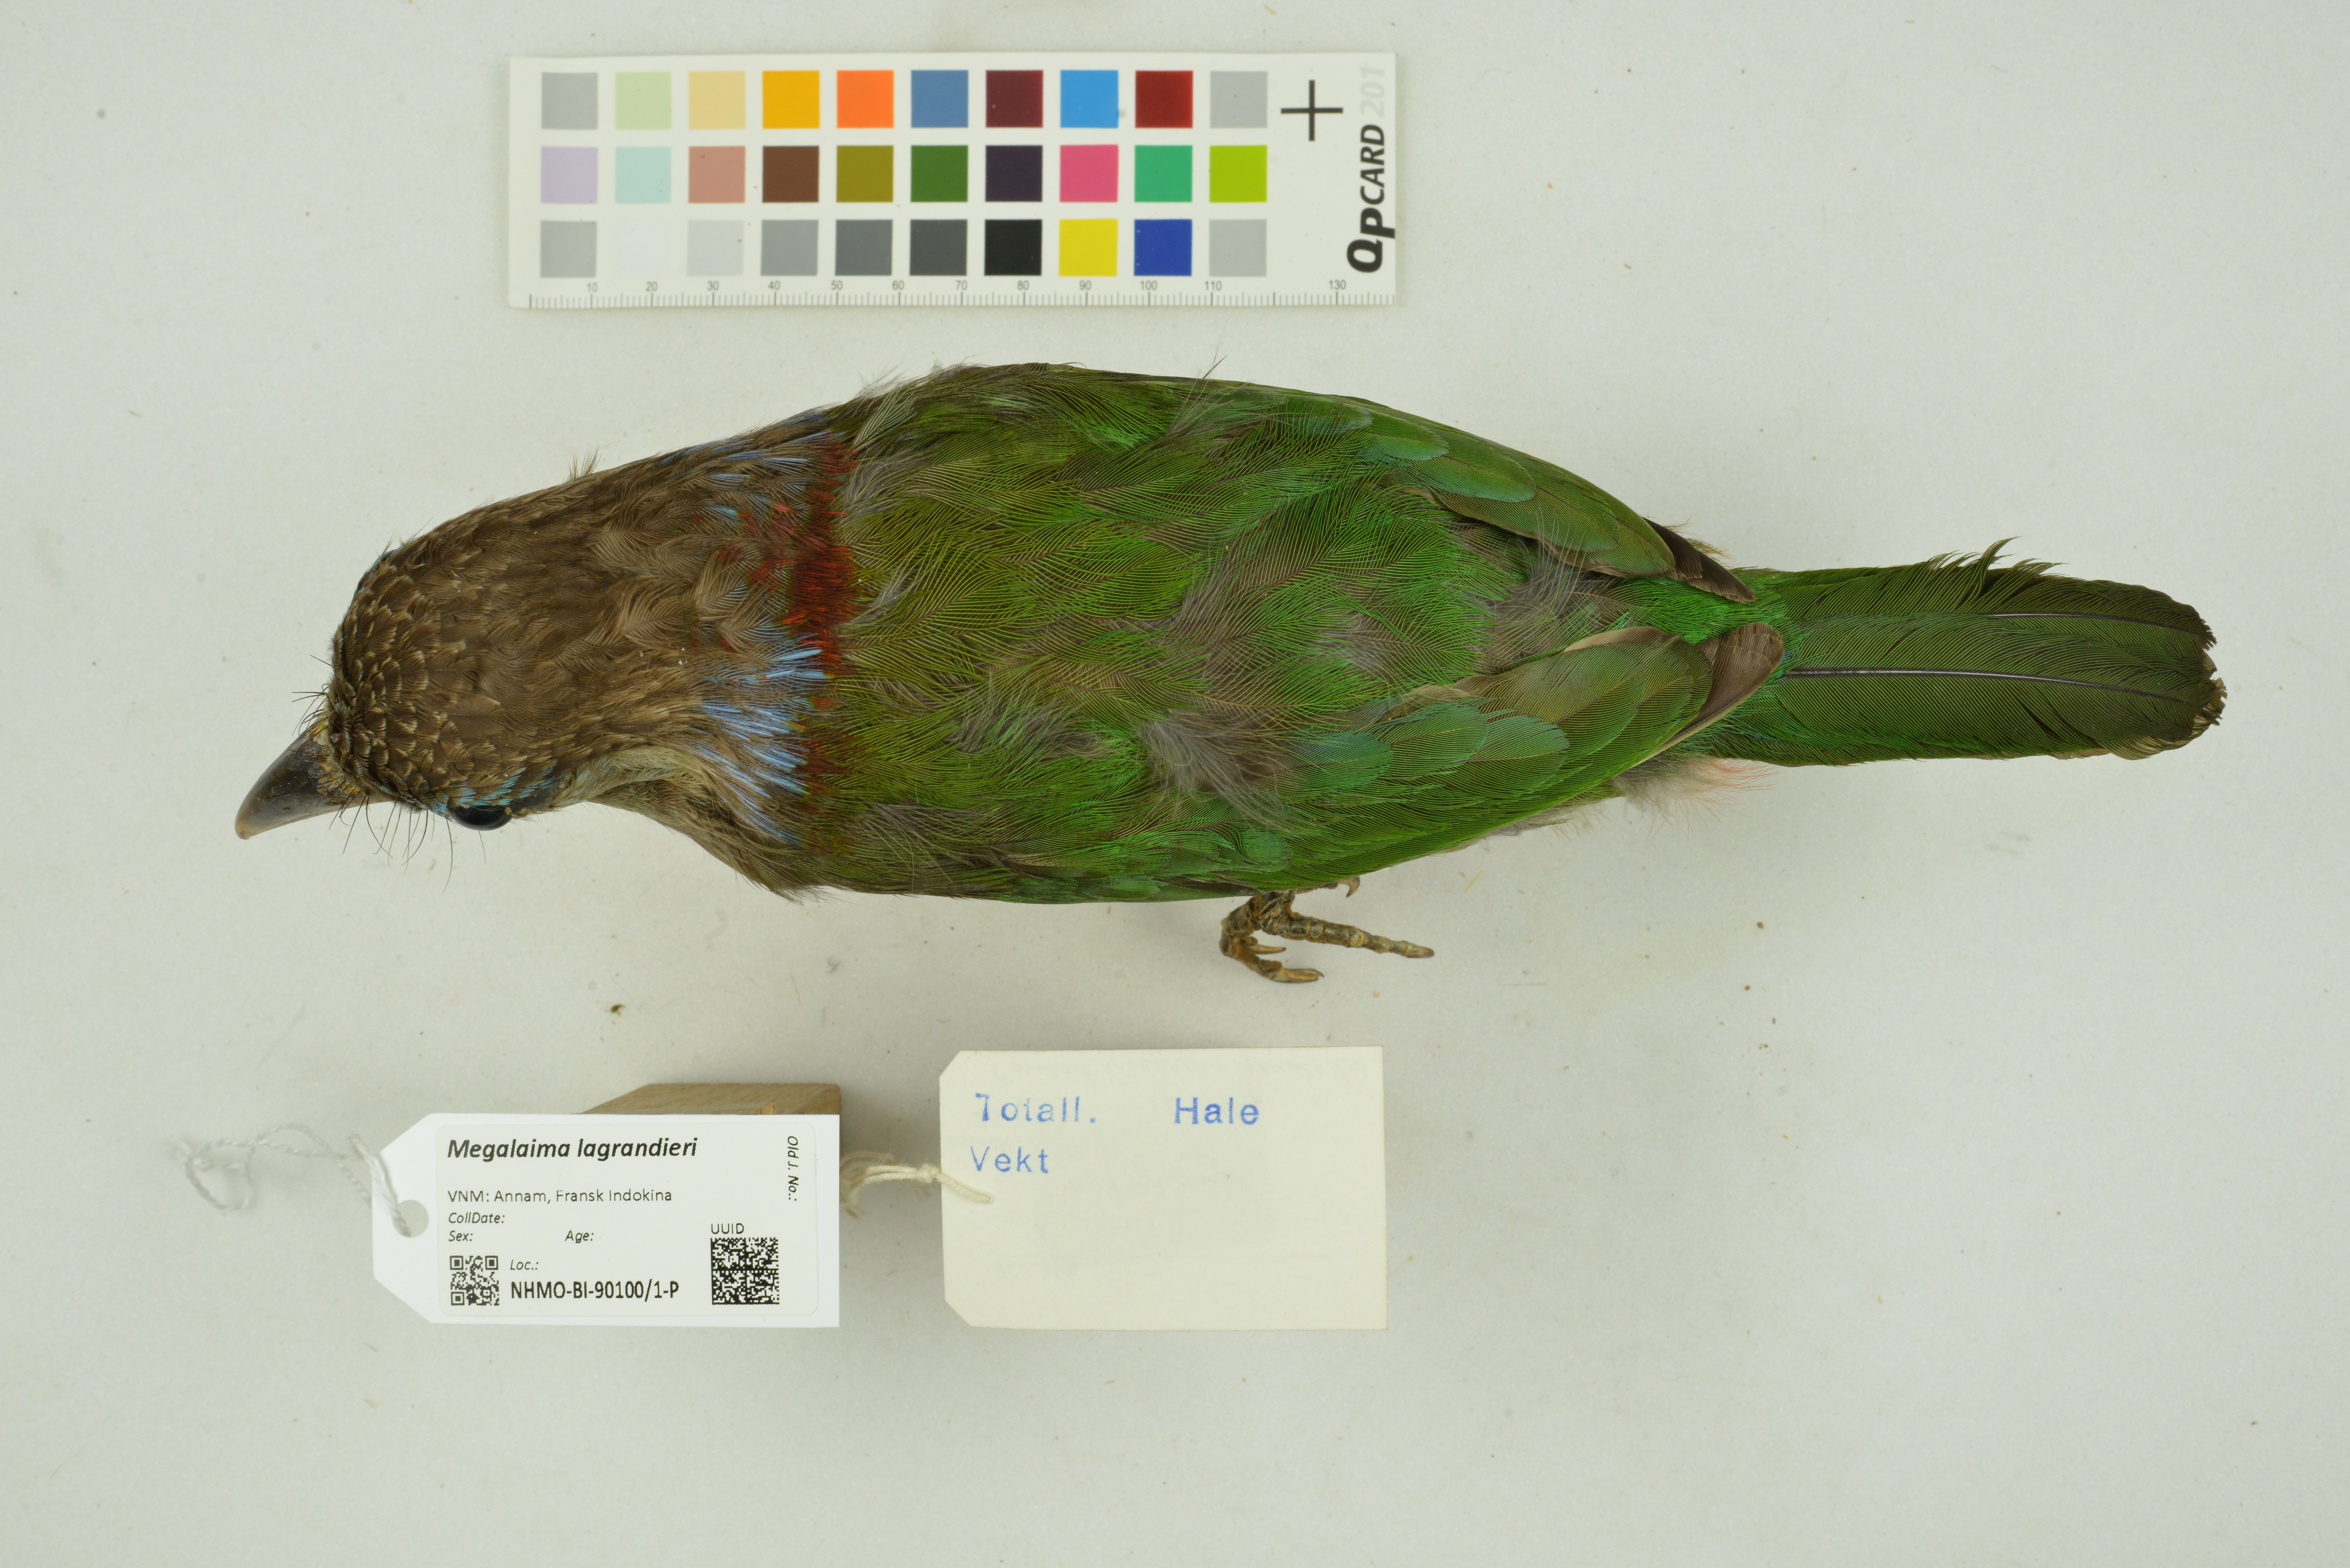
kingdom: Animalia
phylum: Chordata
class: Aves
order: Piciformes
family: Megalaimidae
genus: Psilopogon
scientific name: Psilopogon lagrandieri
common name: Red-vented barbet
